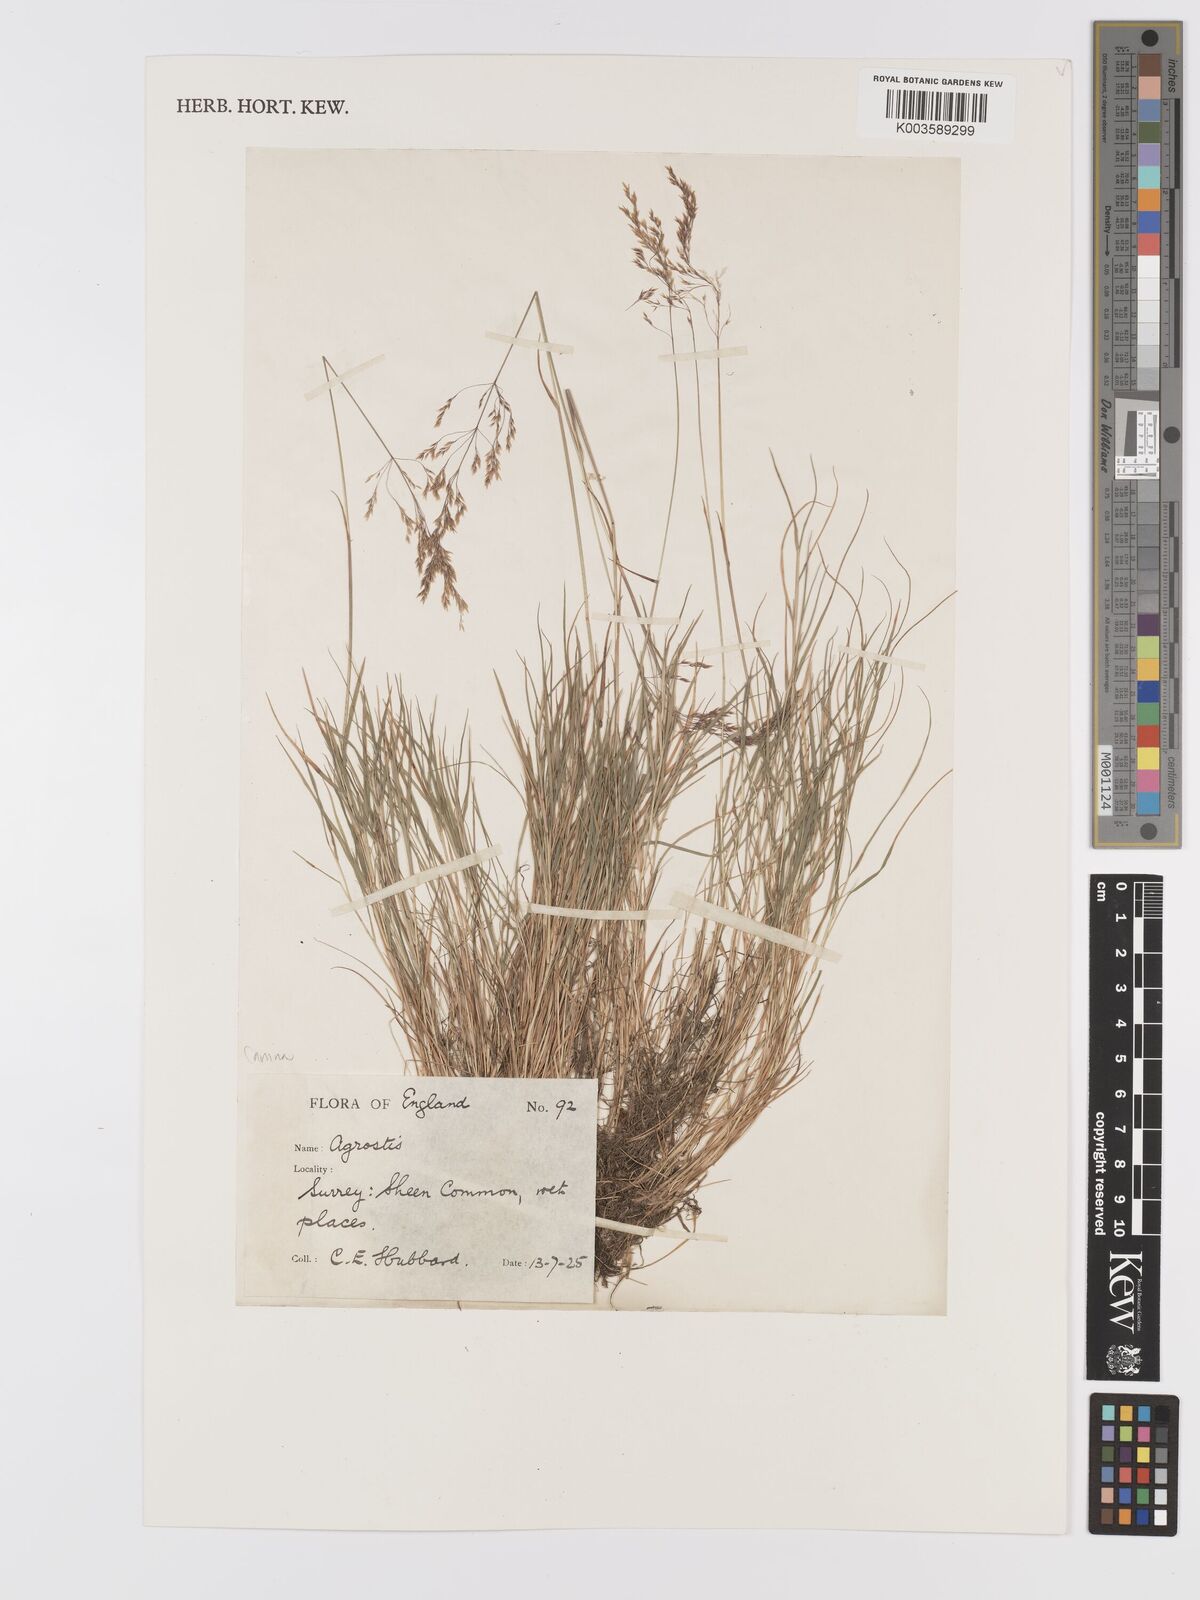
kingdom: Plantae
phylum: Tracheophyta
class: Liliopsida
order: Poales
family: Poaceae
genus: Agrostis
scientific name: Agrostis canina
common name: Velvet bent
